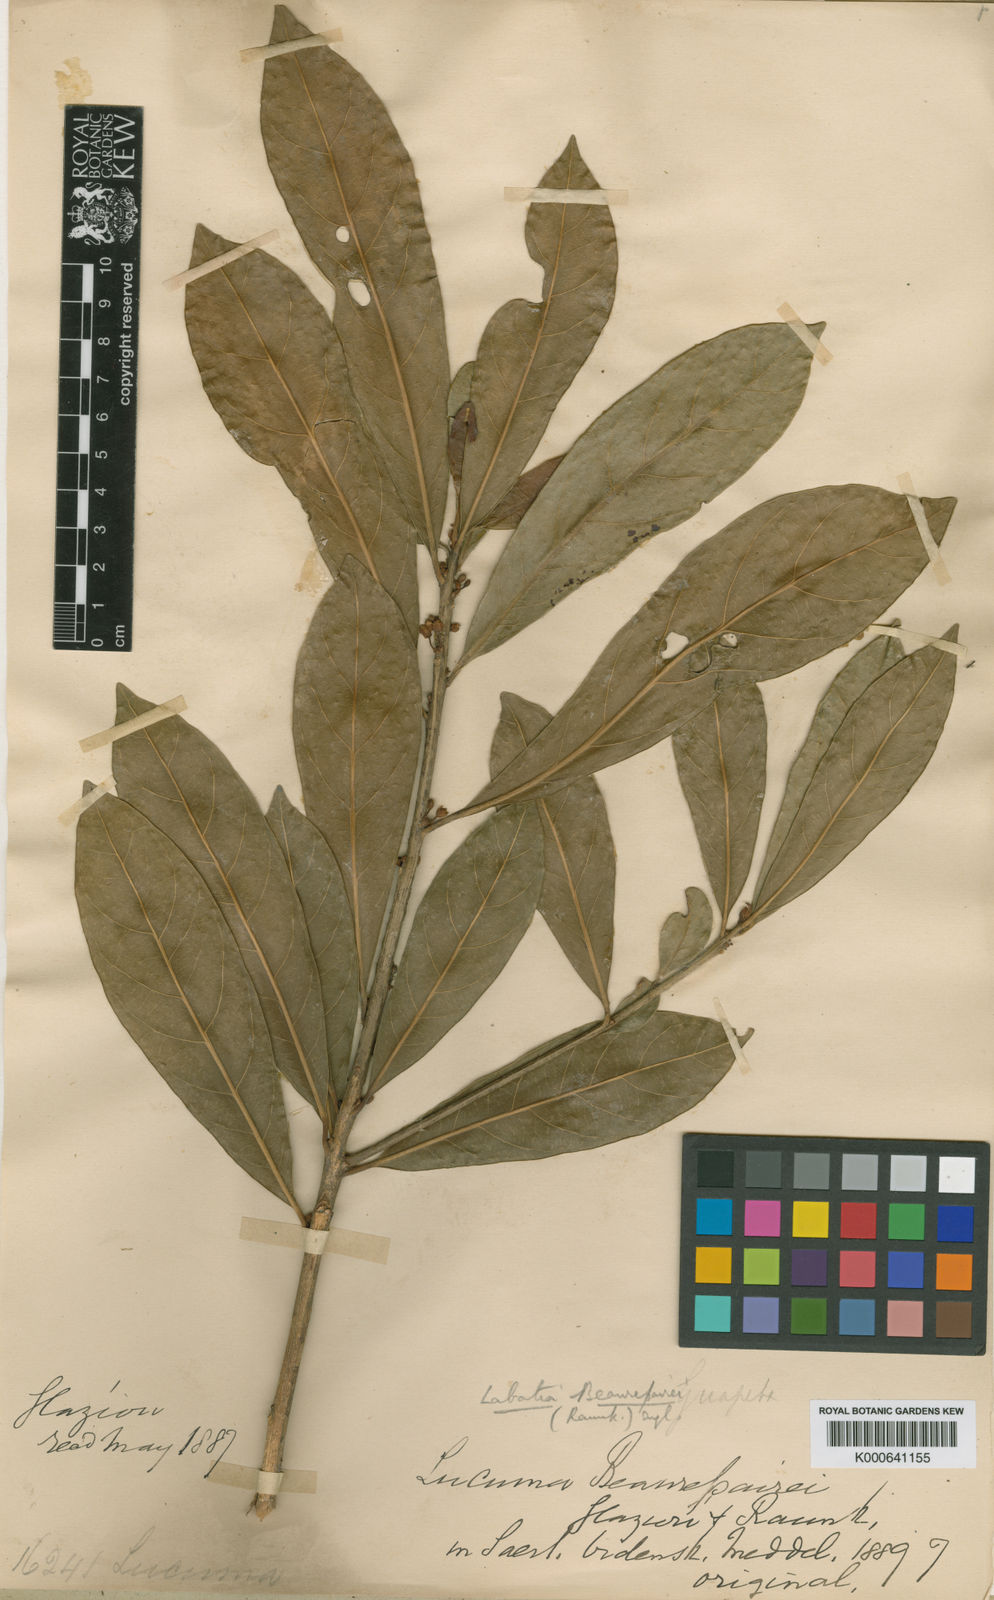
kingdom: Plantae
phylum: Tracheophyta
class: Magnoliopsida
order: Ericales
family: Sapotaceae
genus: Pouteria
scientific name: Pouteria beaurepairei
